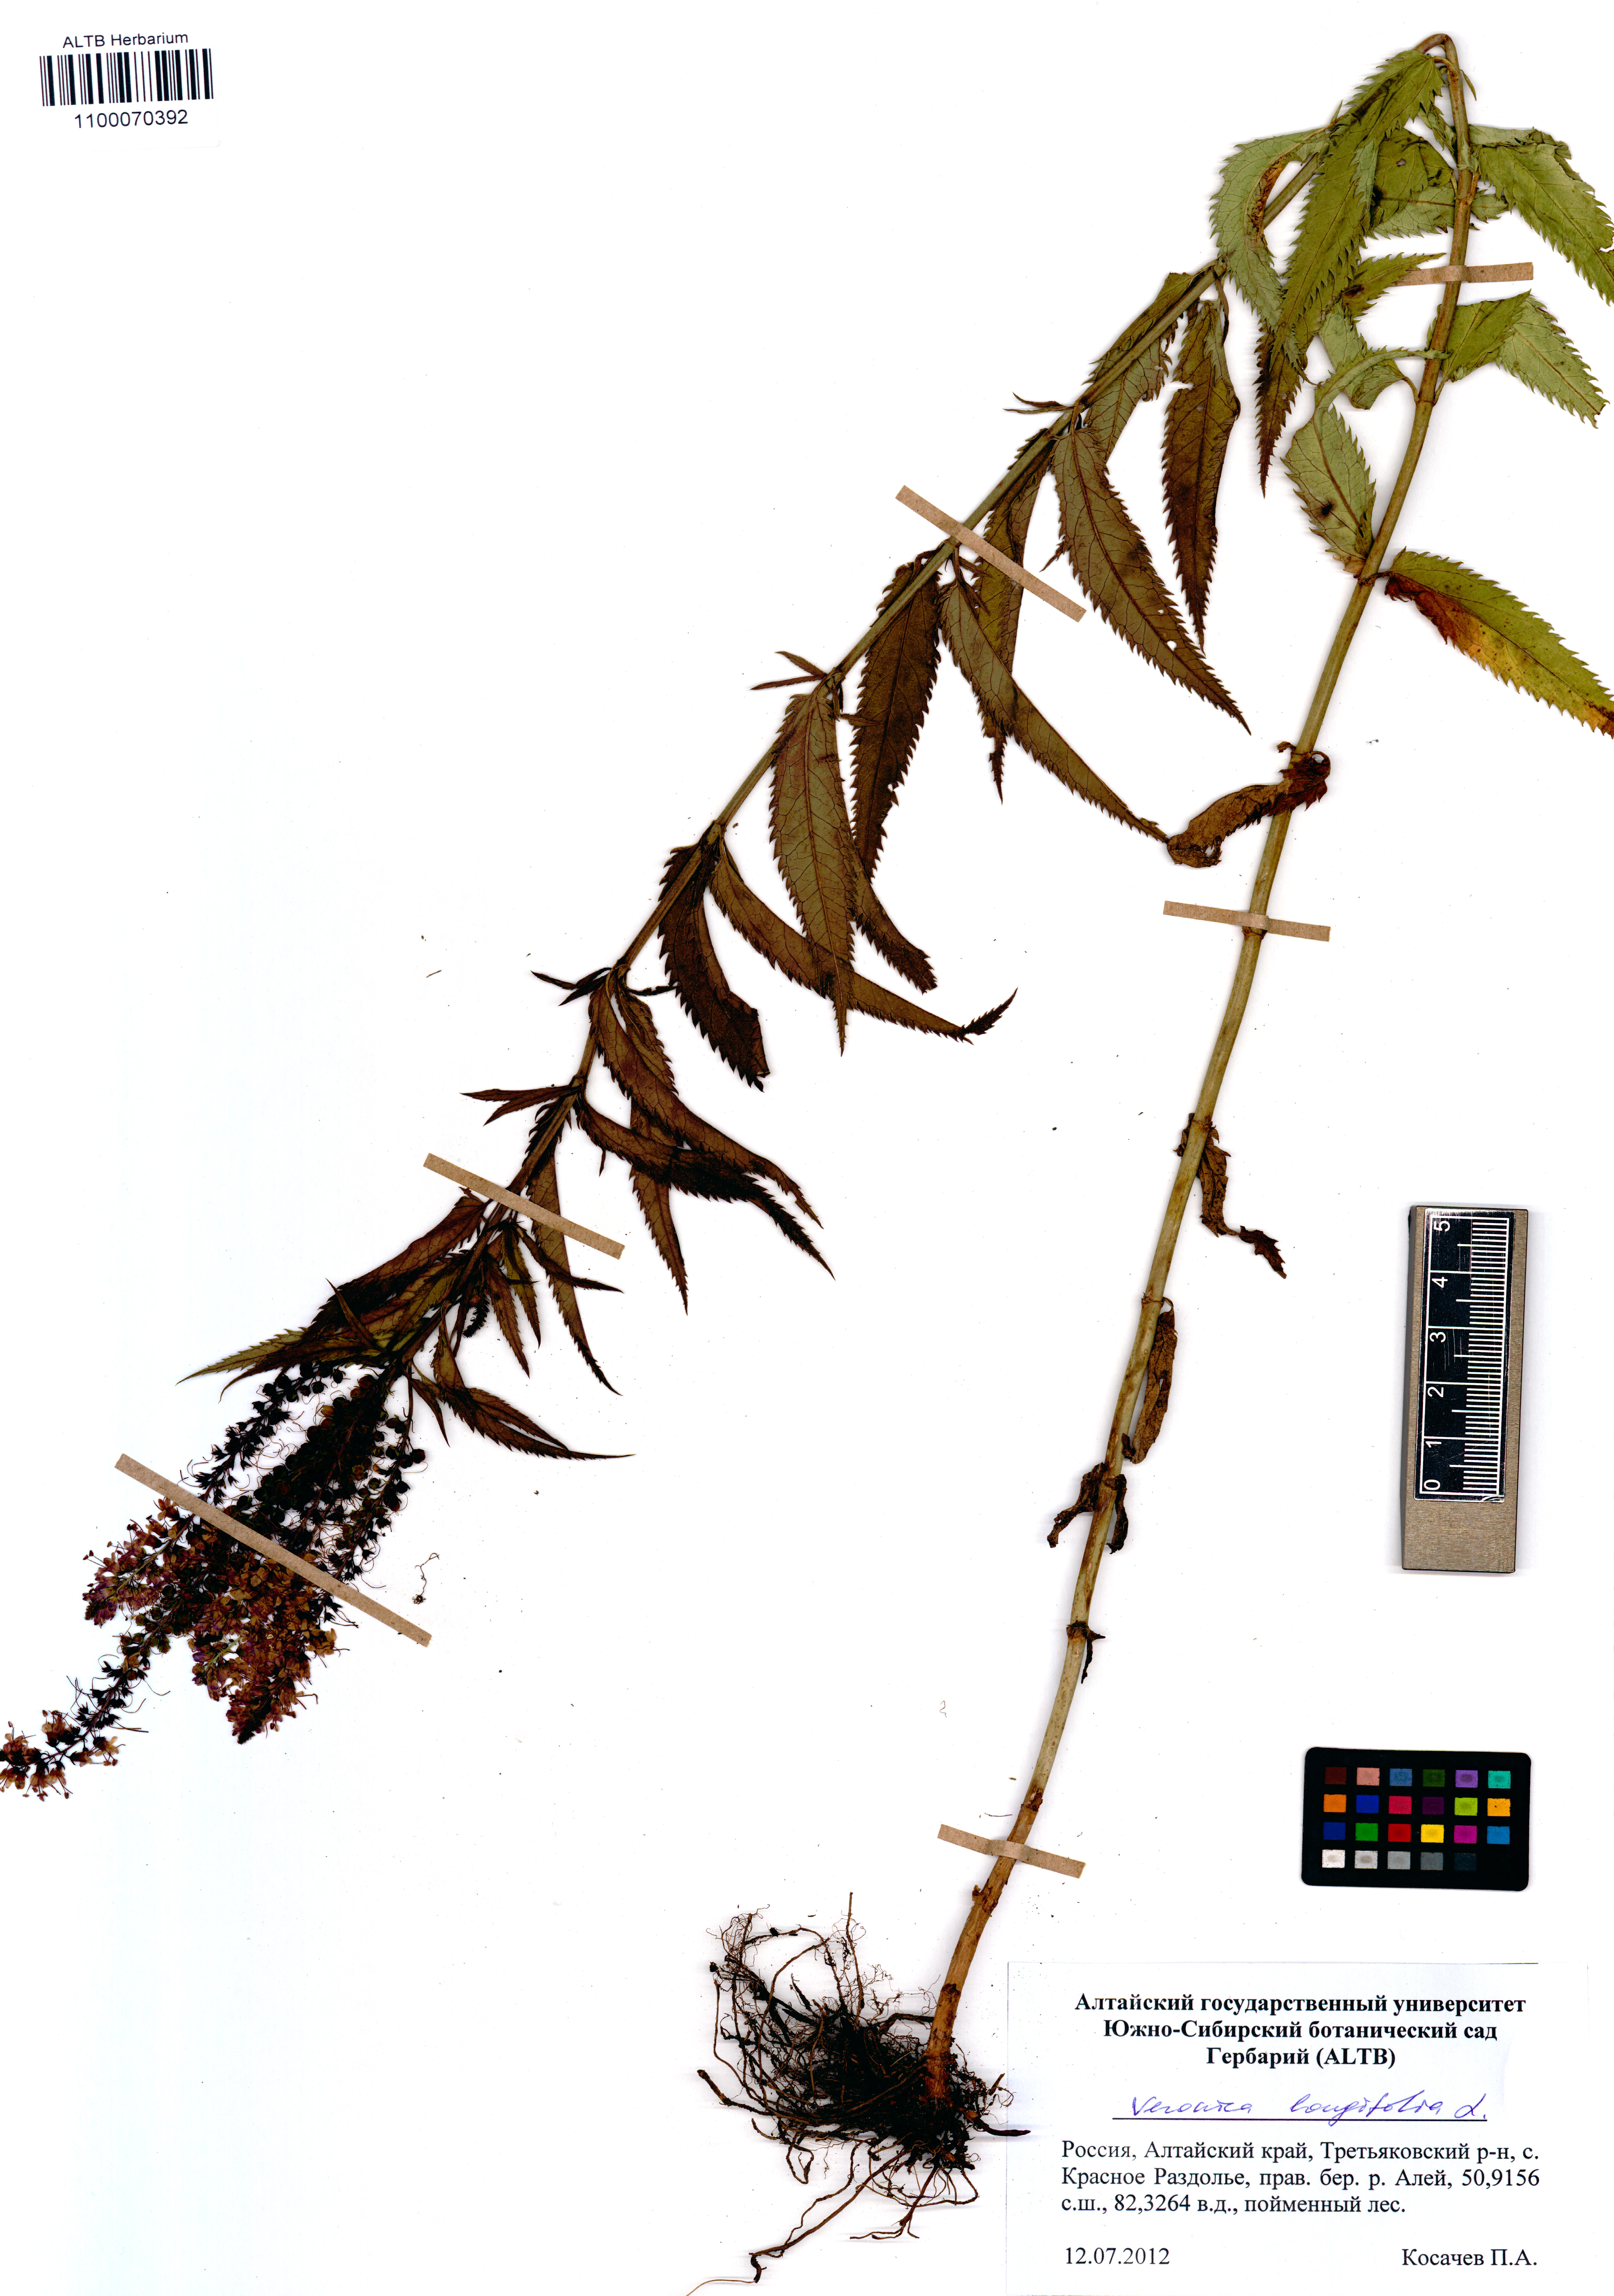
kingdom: Plantae
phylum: Tracheophyta
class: Magnoliopsida
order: Lamiales
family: Plantaginaceae
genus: Veronica
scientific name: Veronica longifolia
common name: Garden speedwell
